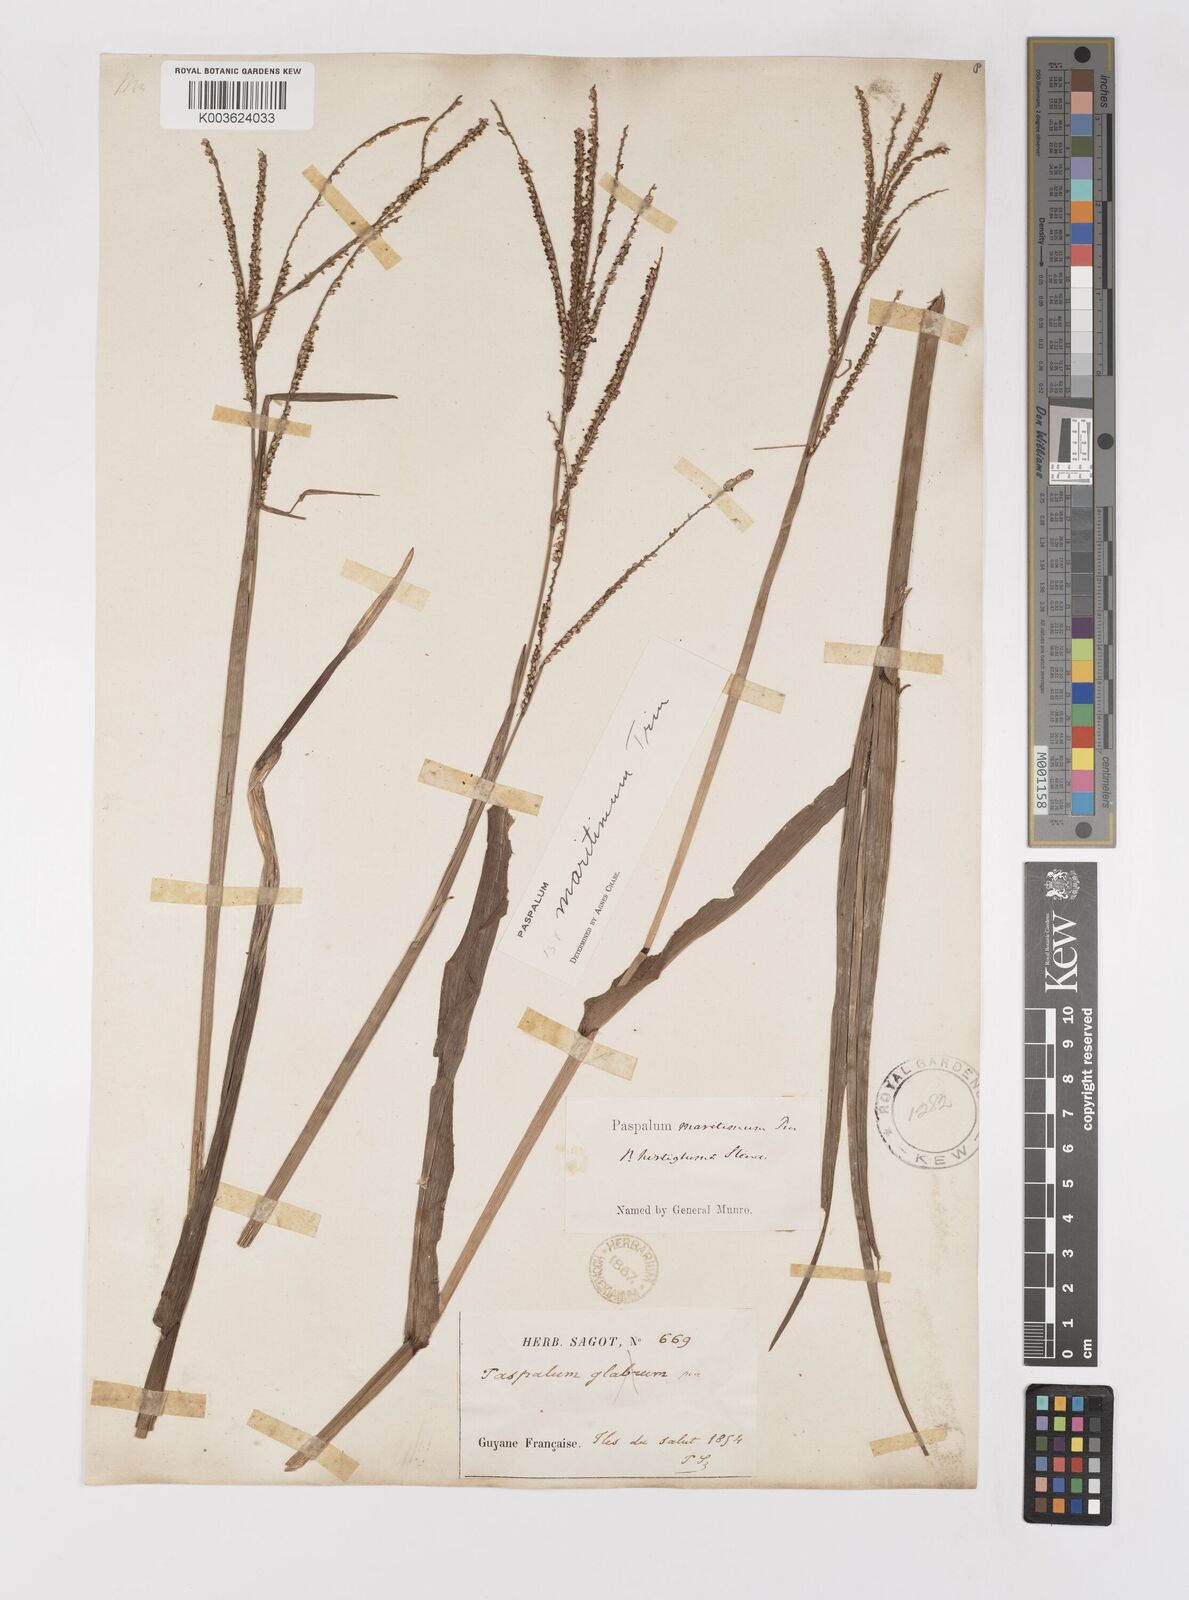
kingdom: Plantae
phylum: Tracheophyta
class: Liliopsida
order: Poales
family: Poaceae
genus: Paspalum
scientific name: Paspalum maritimum
